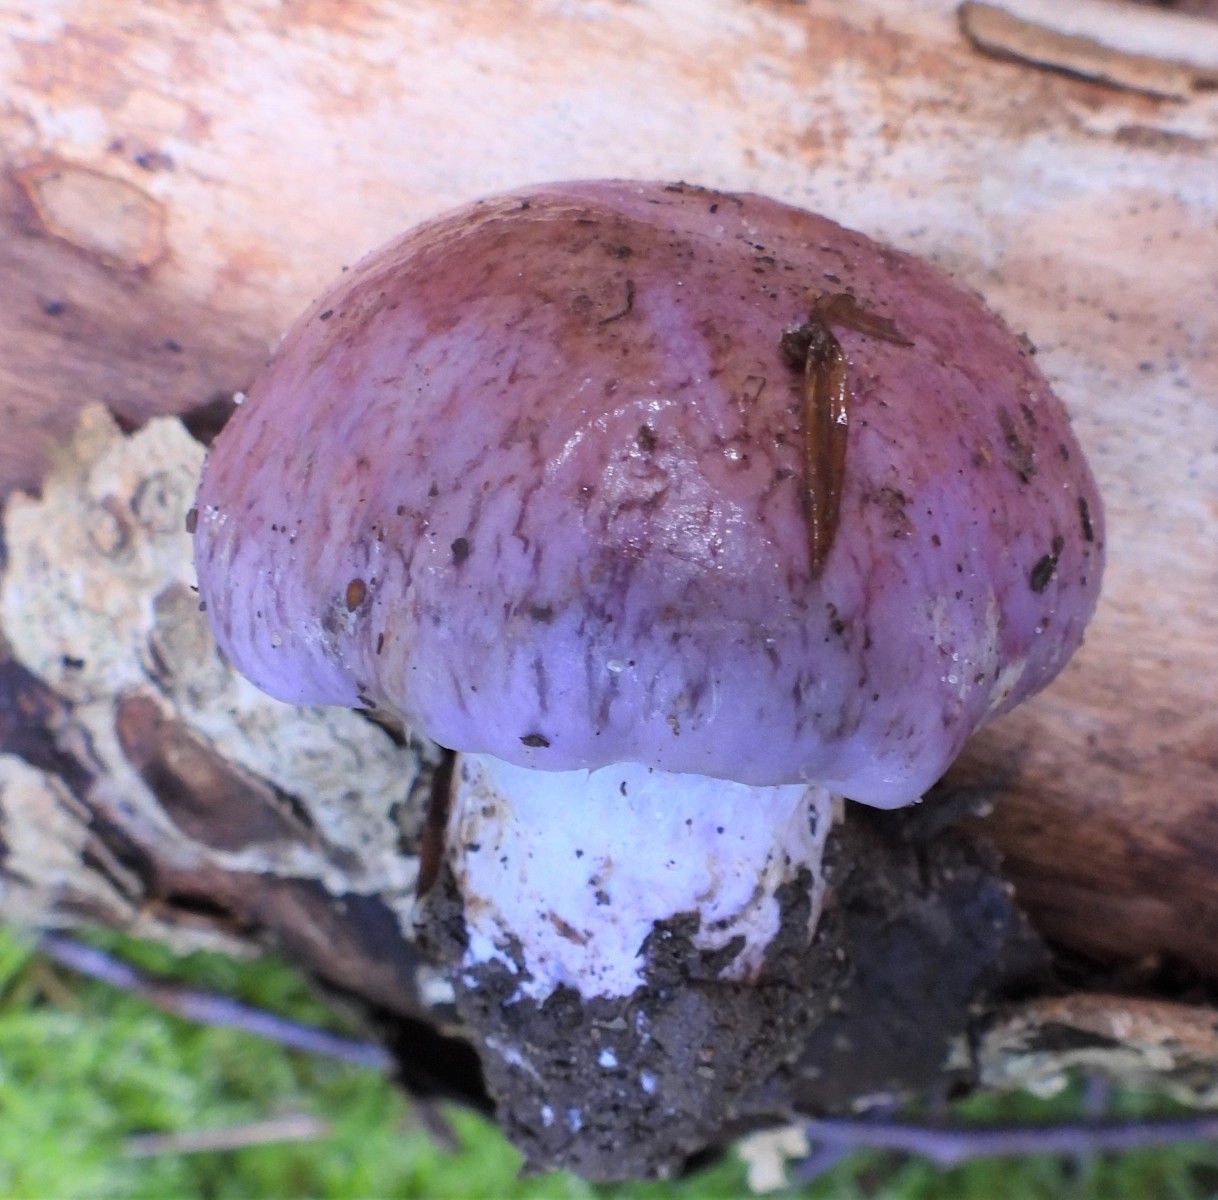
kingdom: Fungi
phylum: Basidiomycota
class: Agaricomycetes
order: Agaricales
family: Cortinariaceae
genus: Cortinarius
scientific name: Cortinarius largus
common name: violetrandet slørhat
